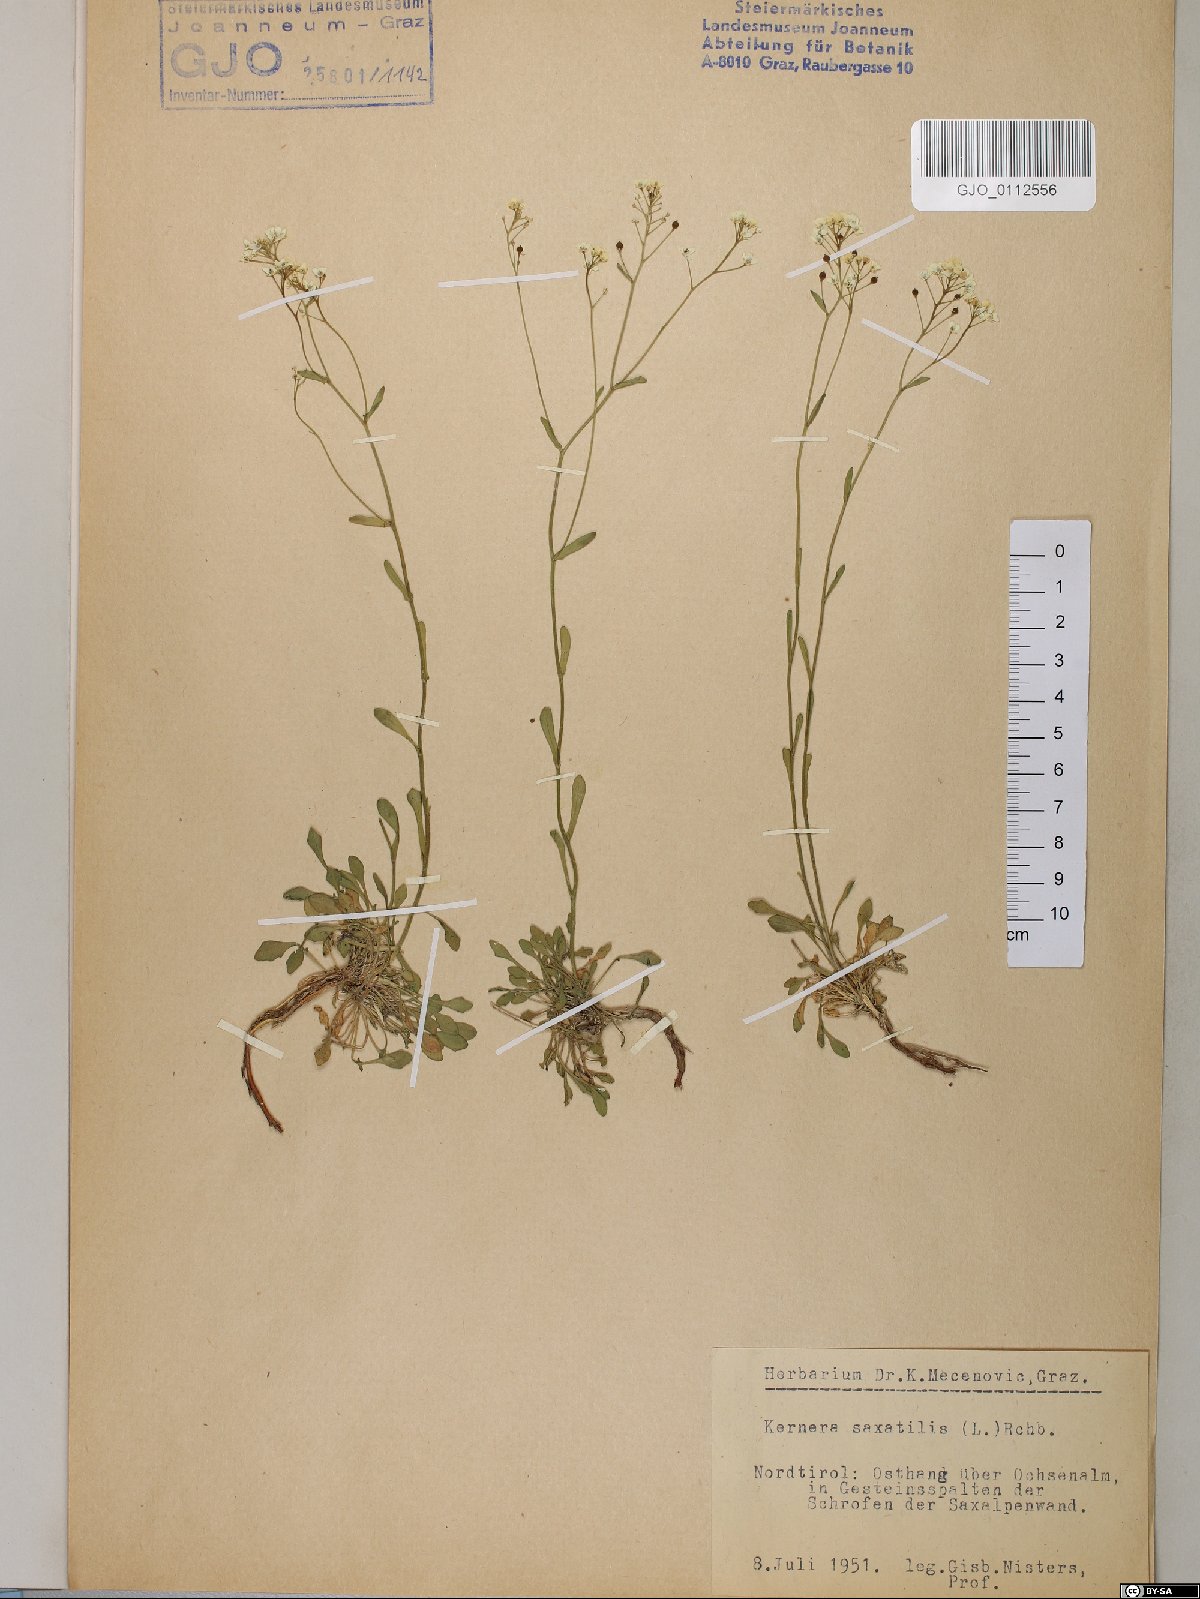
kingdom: Plantae
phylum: Tracheophyta
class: Magnoliopsida
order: Brassicales
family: Brassicaceae
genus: Kernera
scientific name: Kernera saxatilis
